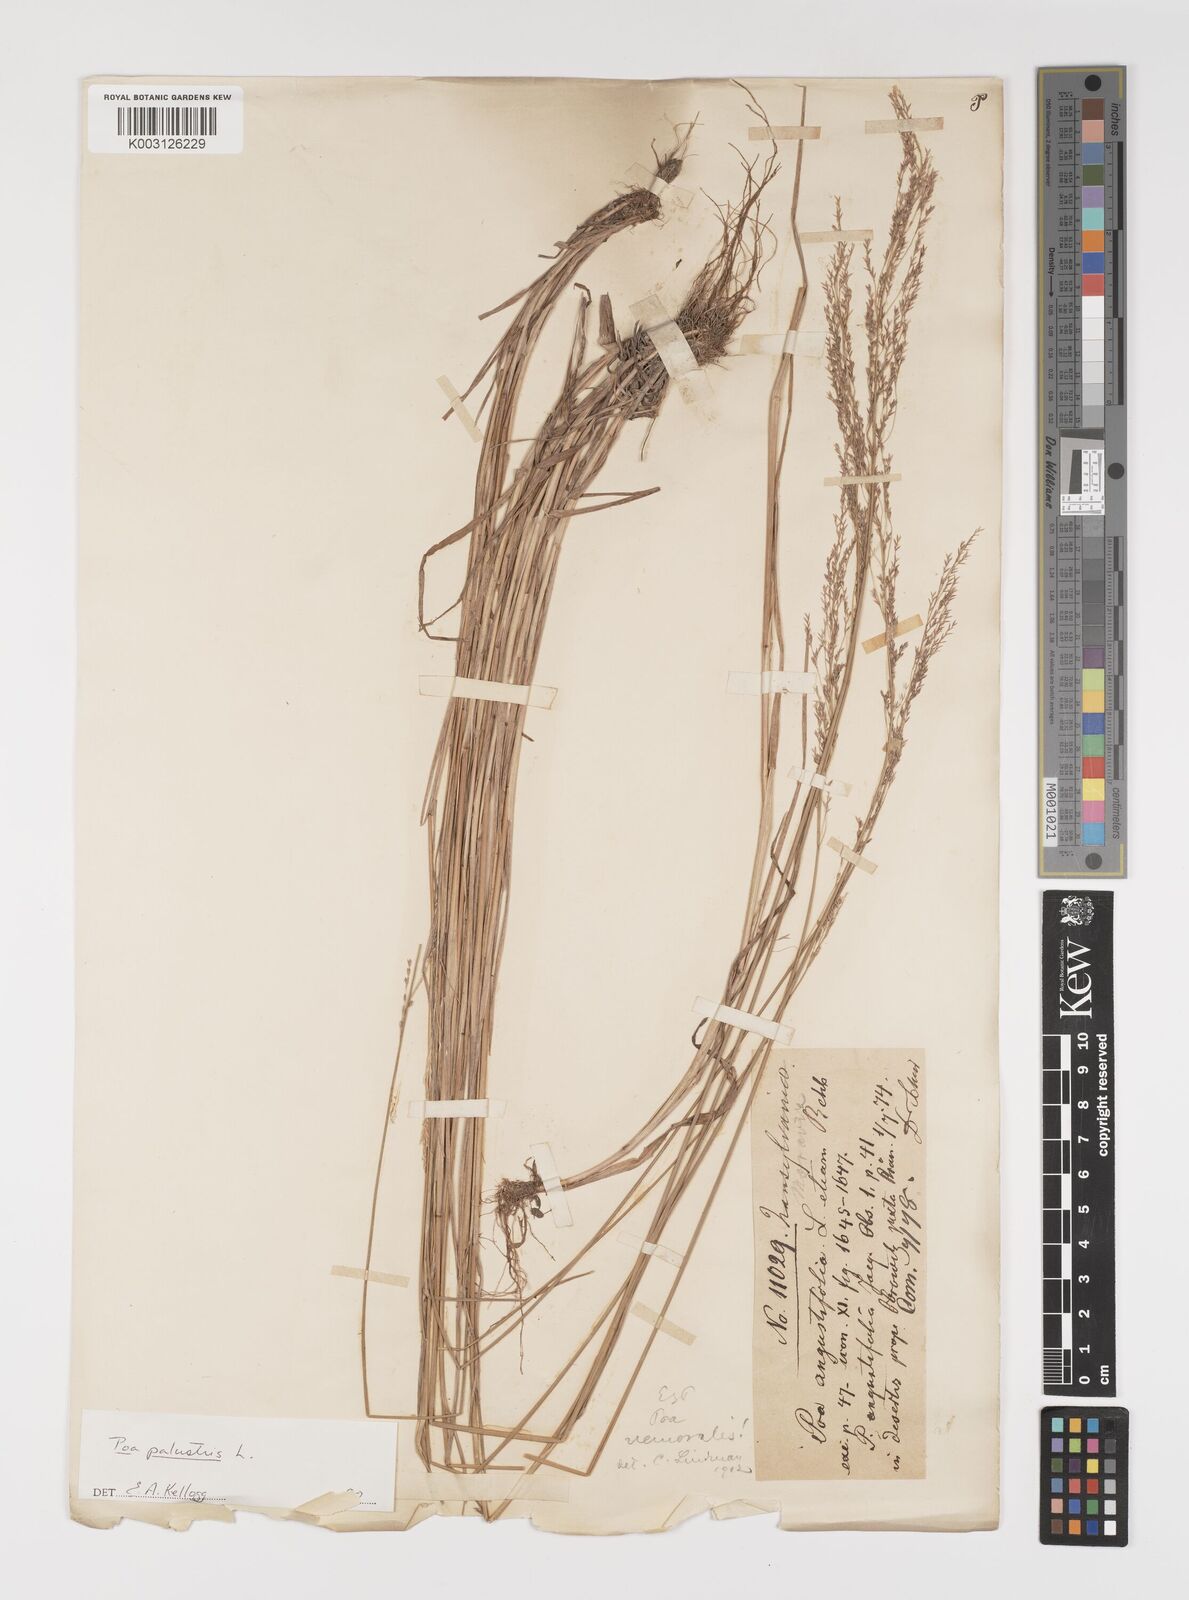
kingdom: Plantae
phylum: Tracheophyta
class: Liliopsida
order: Poales
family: Poaceae
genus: Poa
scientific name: Poa palustris
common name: Swamp meadow-grass
